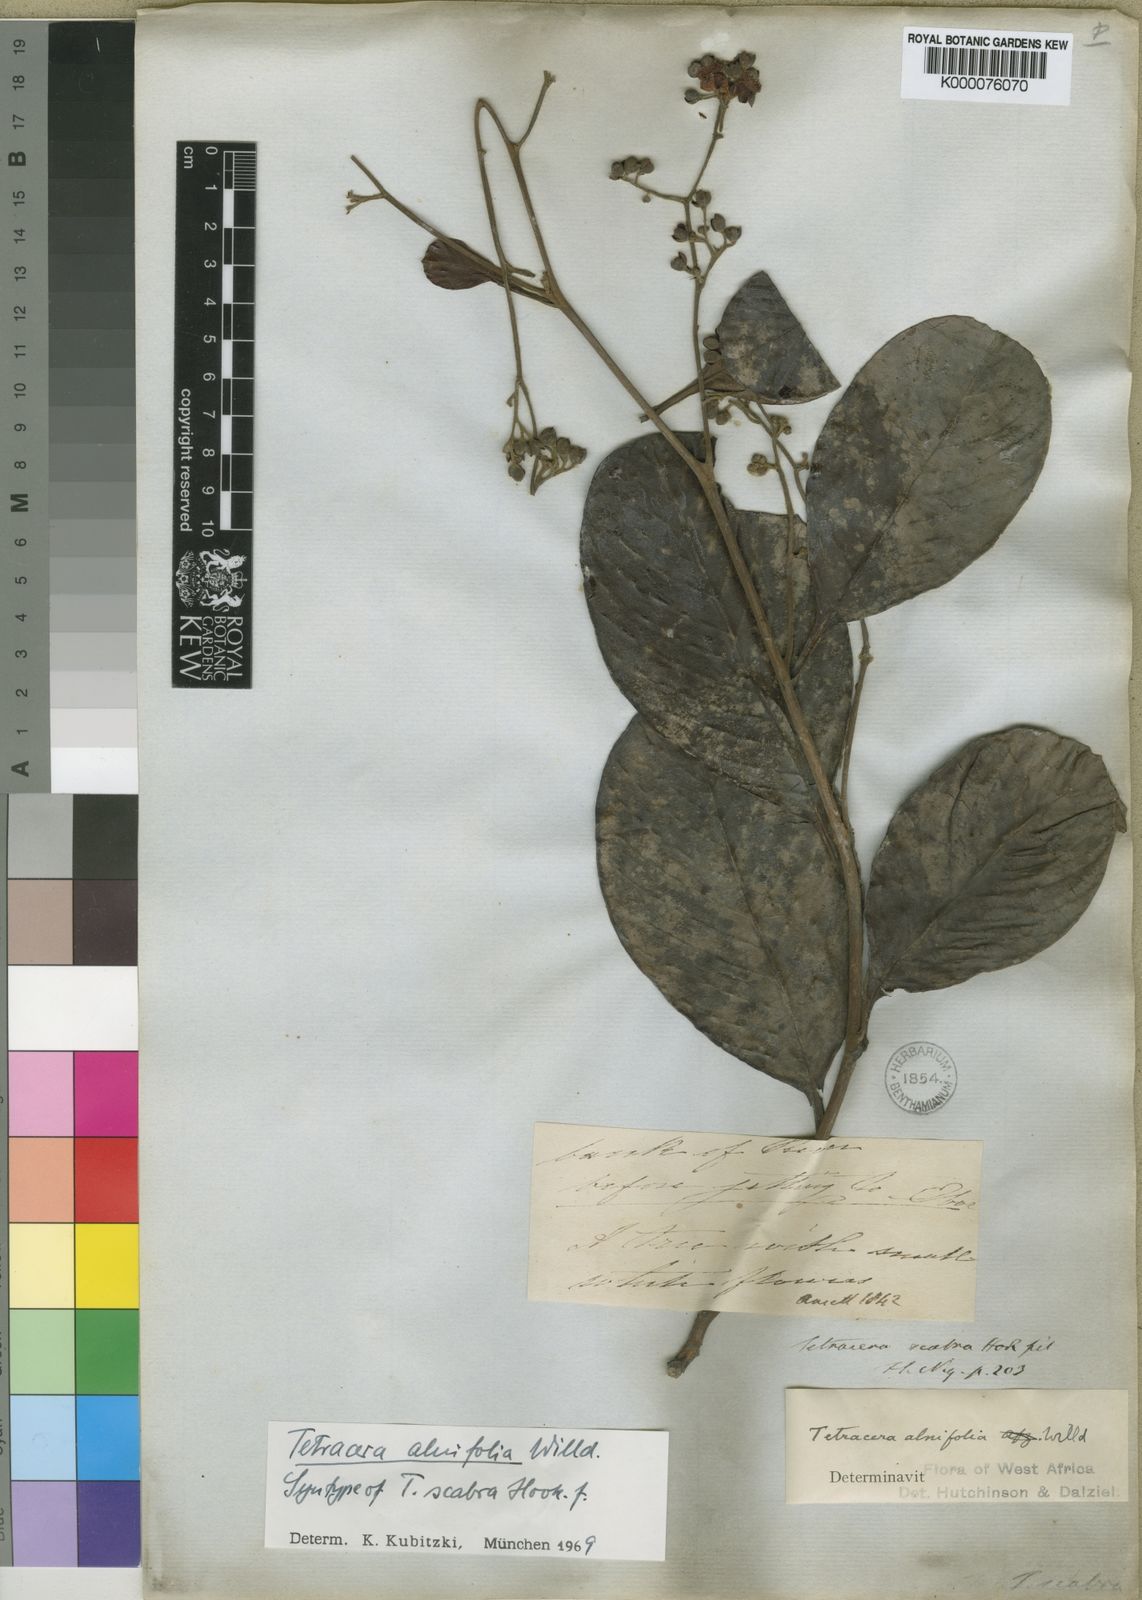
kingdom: Plantae
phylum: Tracheophyta
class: Magnoliopsida
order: Dilleniales
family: Dilleniaceae
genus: Tetracera
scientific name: Tetracera alnifolia
